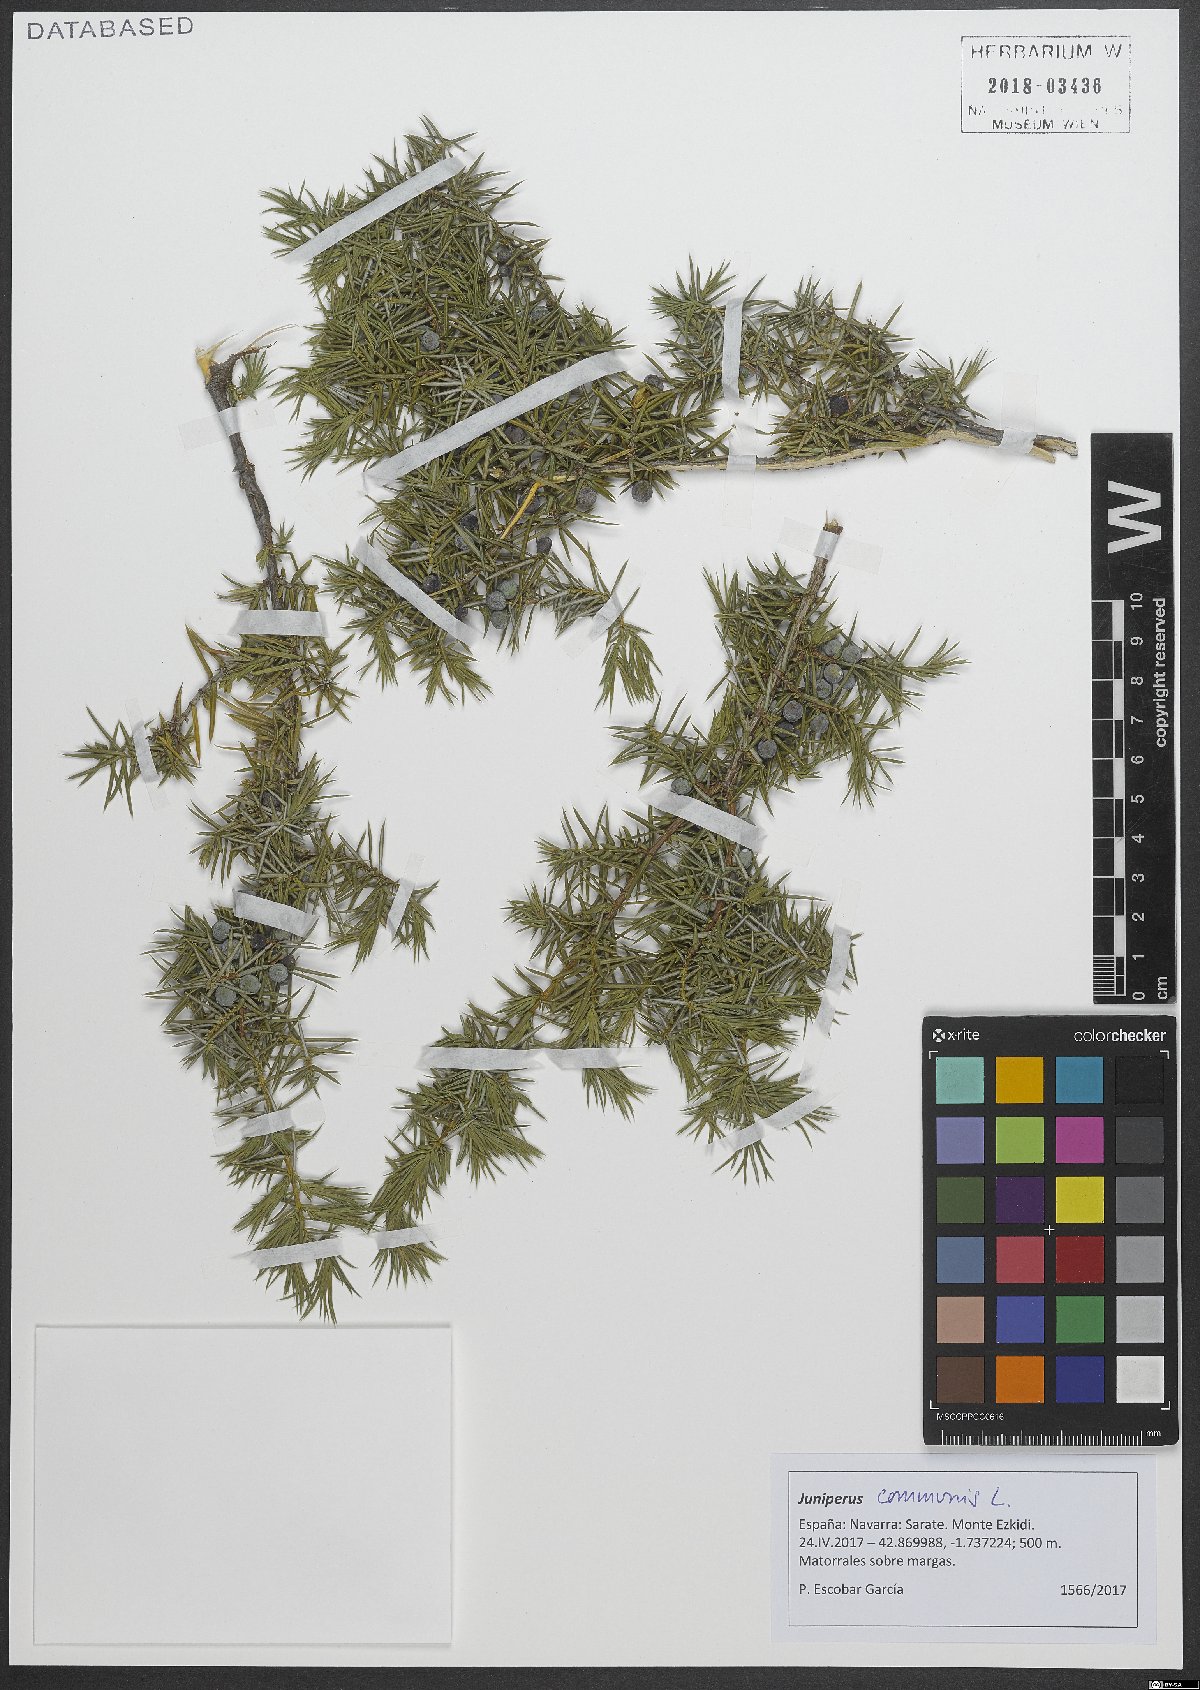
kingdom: Plantae
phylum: Tracheophyta
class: Pinopsida
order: Pinales
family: Cupressaceae
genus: Juniperus
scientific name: Juniperus communis
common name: Common juniper
